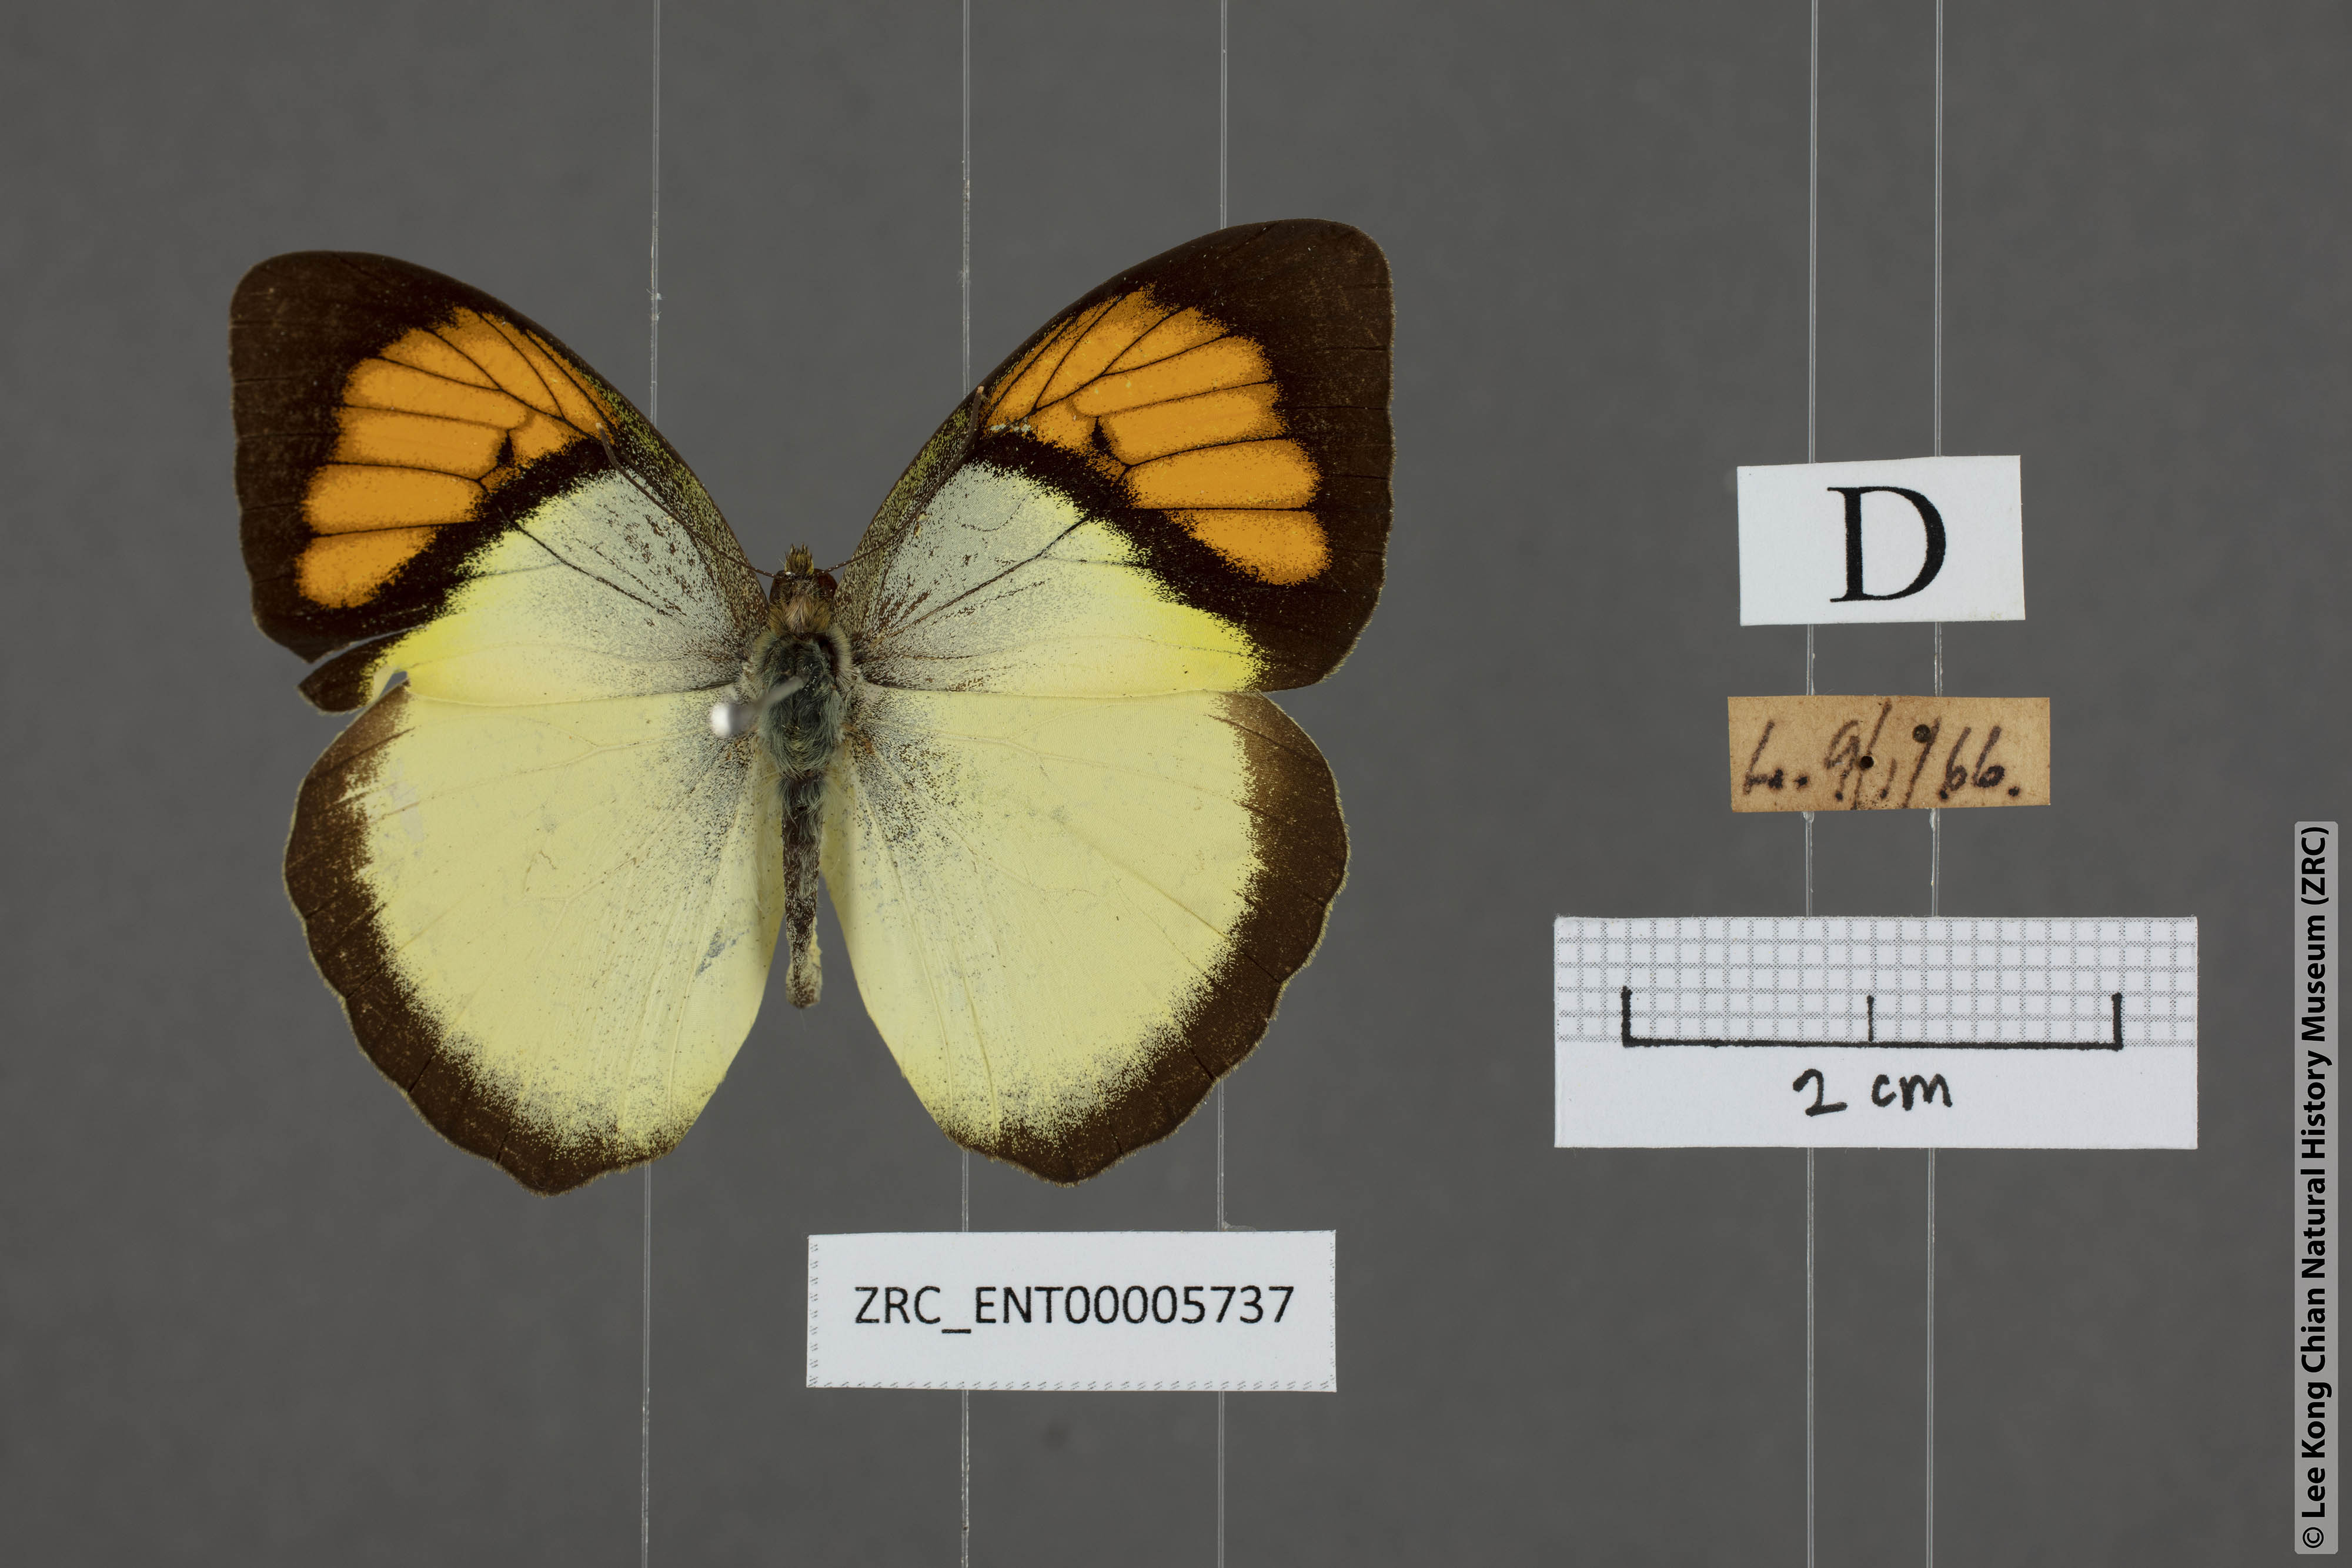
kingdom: Animalia
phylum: Arthropoda
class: Insecta
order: Lepidoptera
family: Pieridae
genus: Ixias
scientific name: Ixias pyrene
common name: Yellow orange tip
